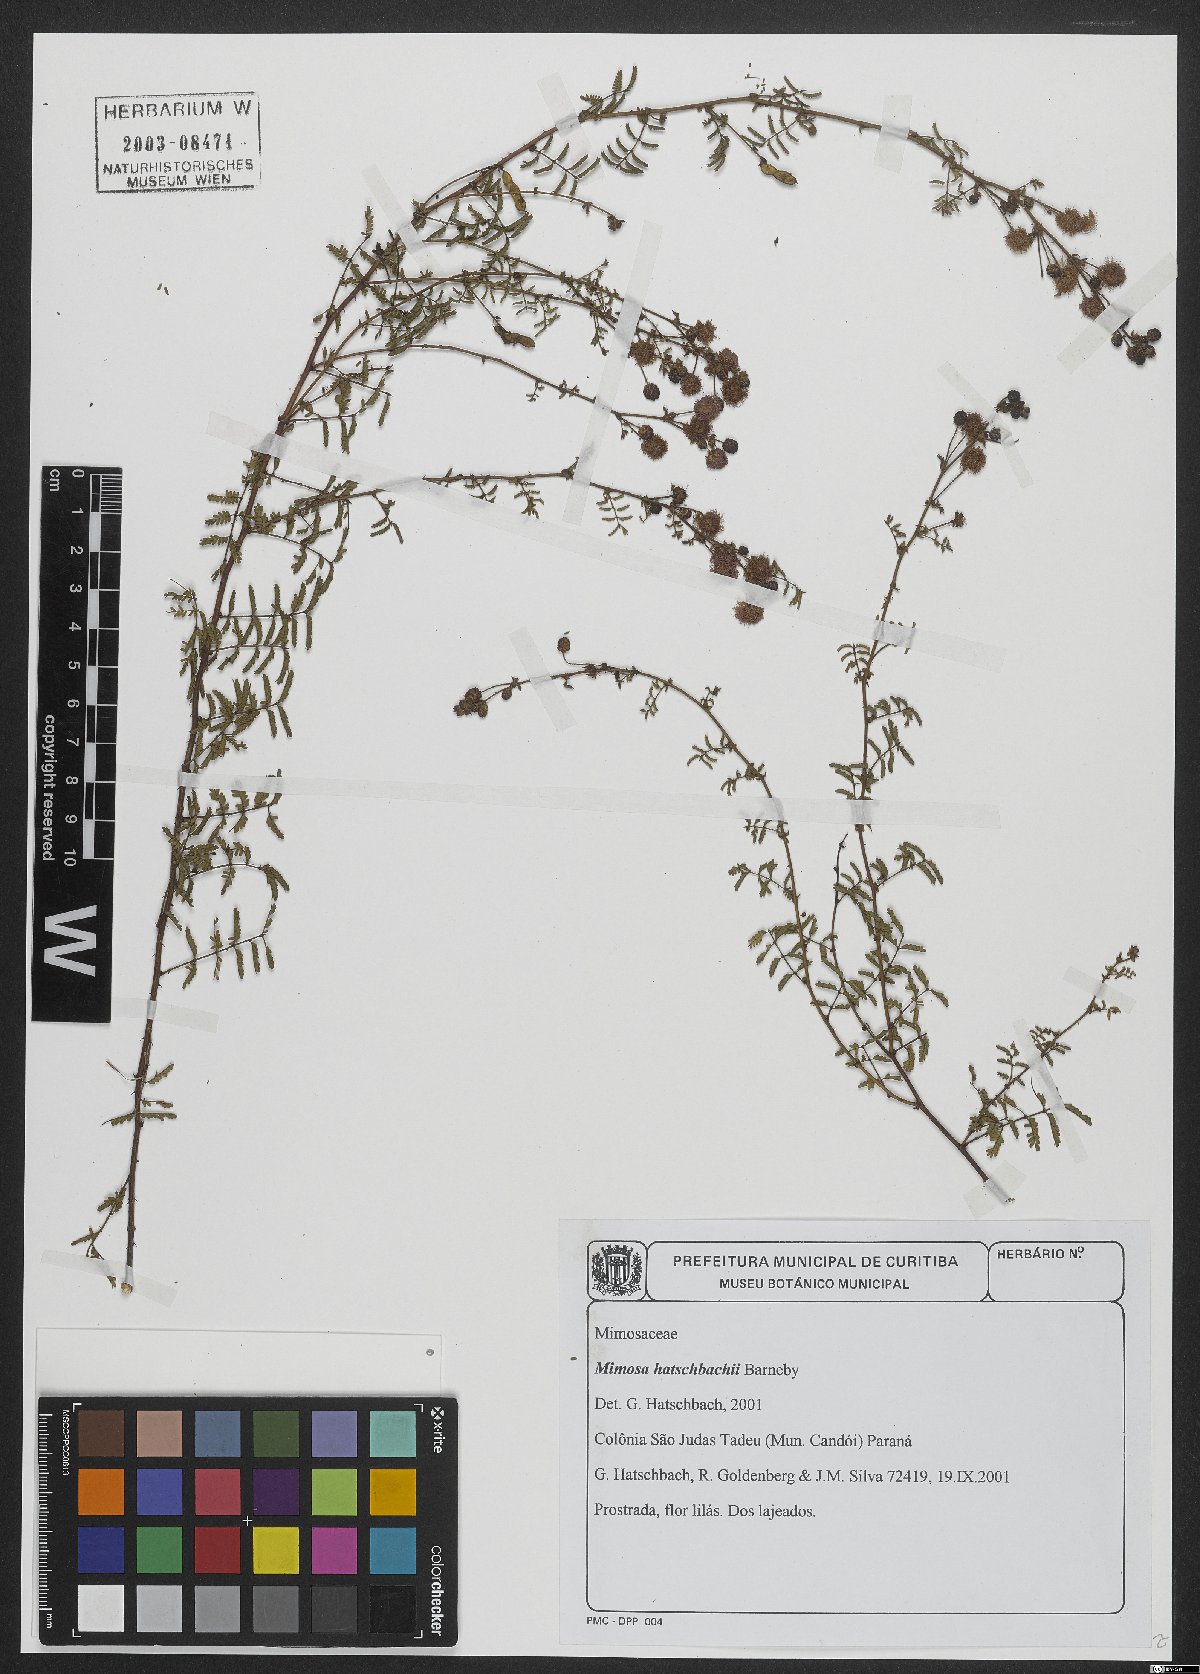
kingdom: Plantae
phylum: Tracheophyta
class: Magnoliopsida
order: Fabales
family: Fabaceae
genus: Mimosa
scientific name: Mimosa hatschbachii
